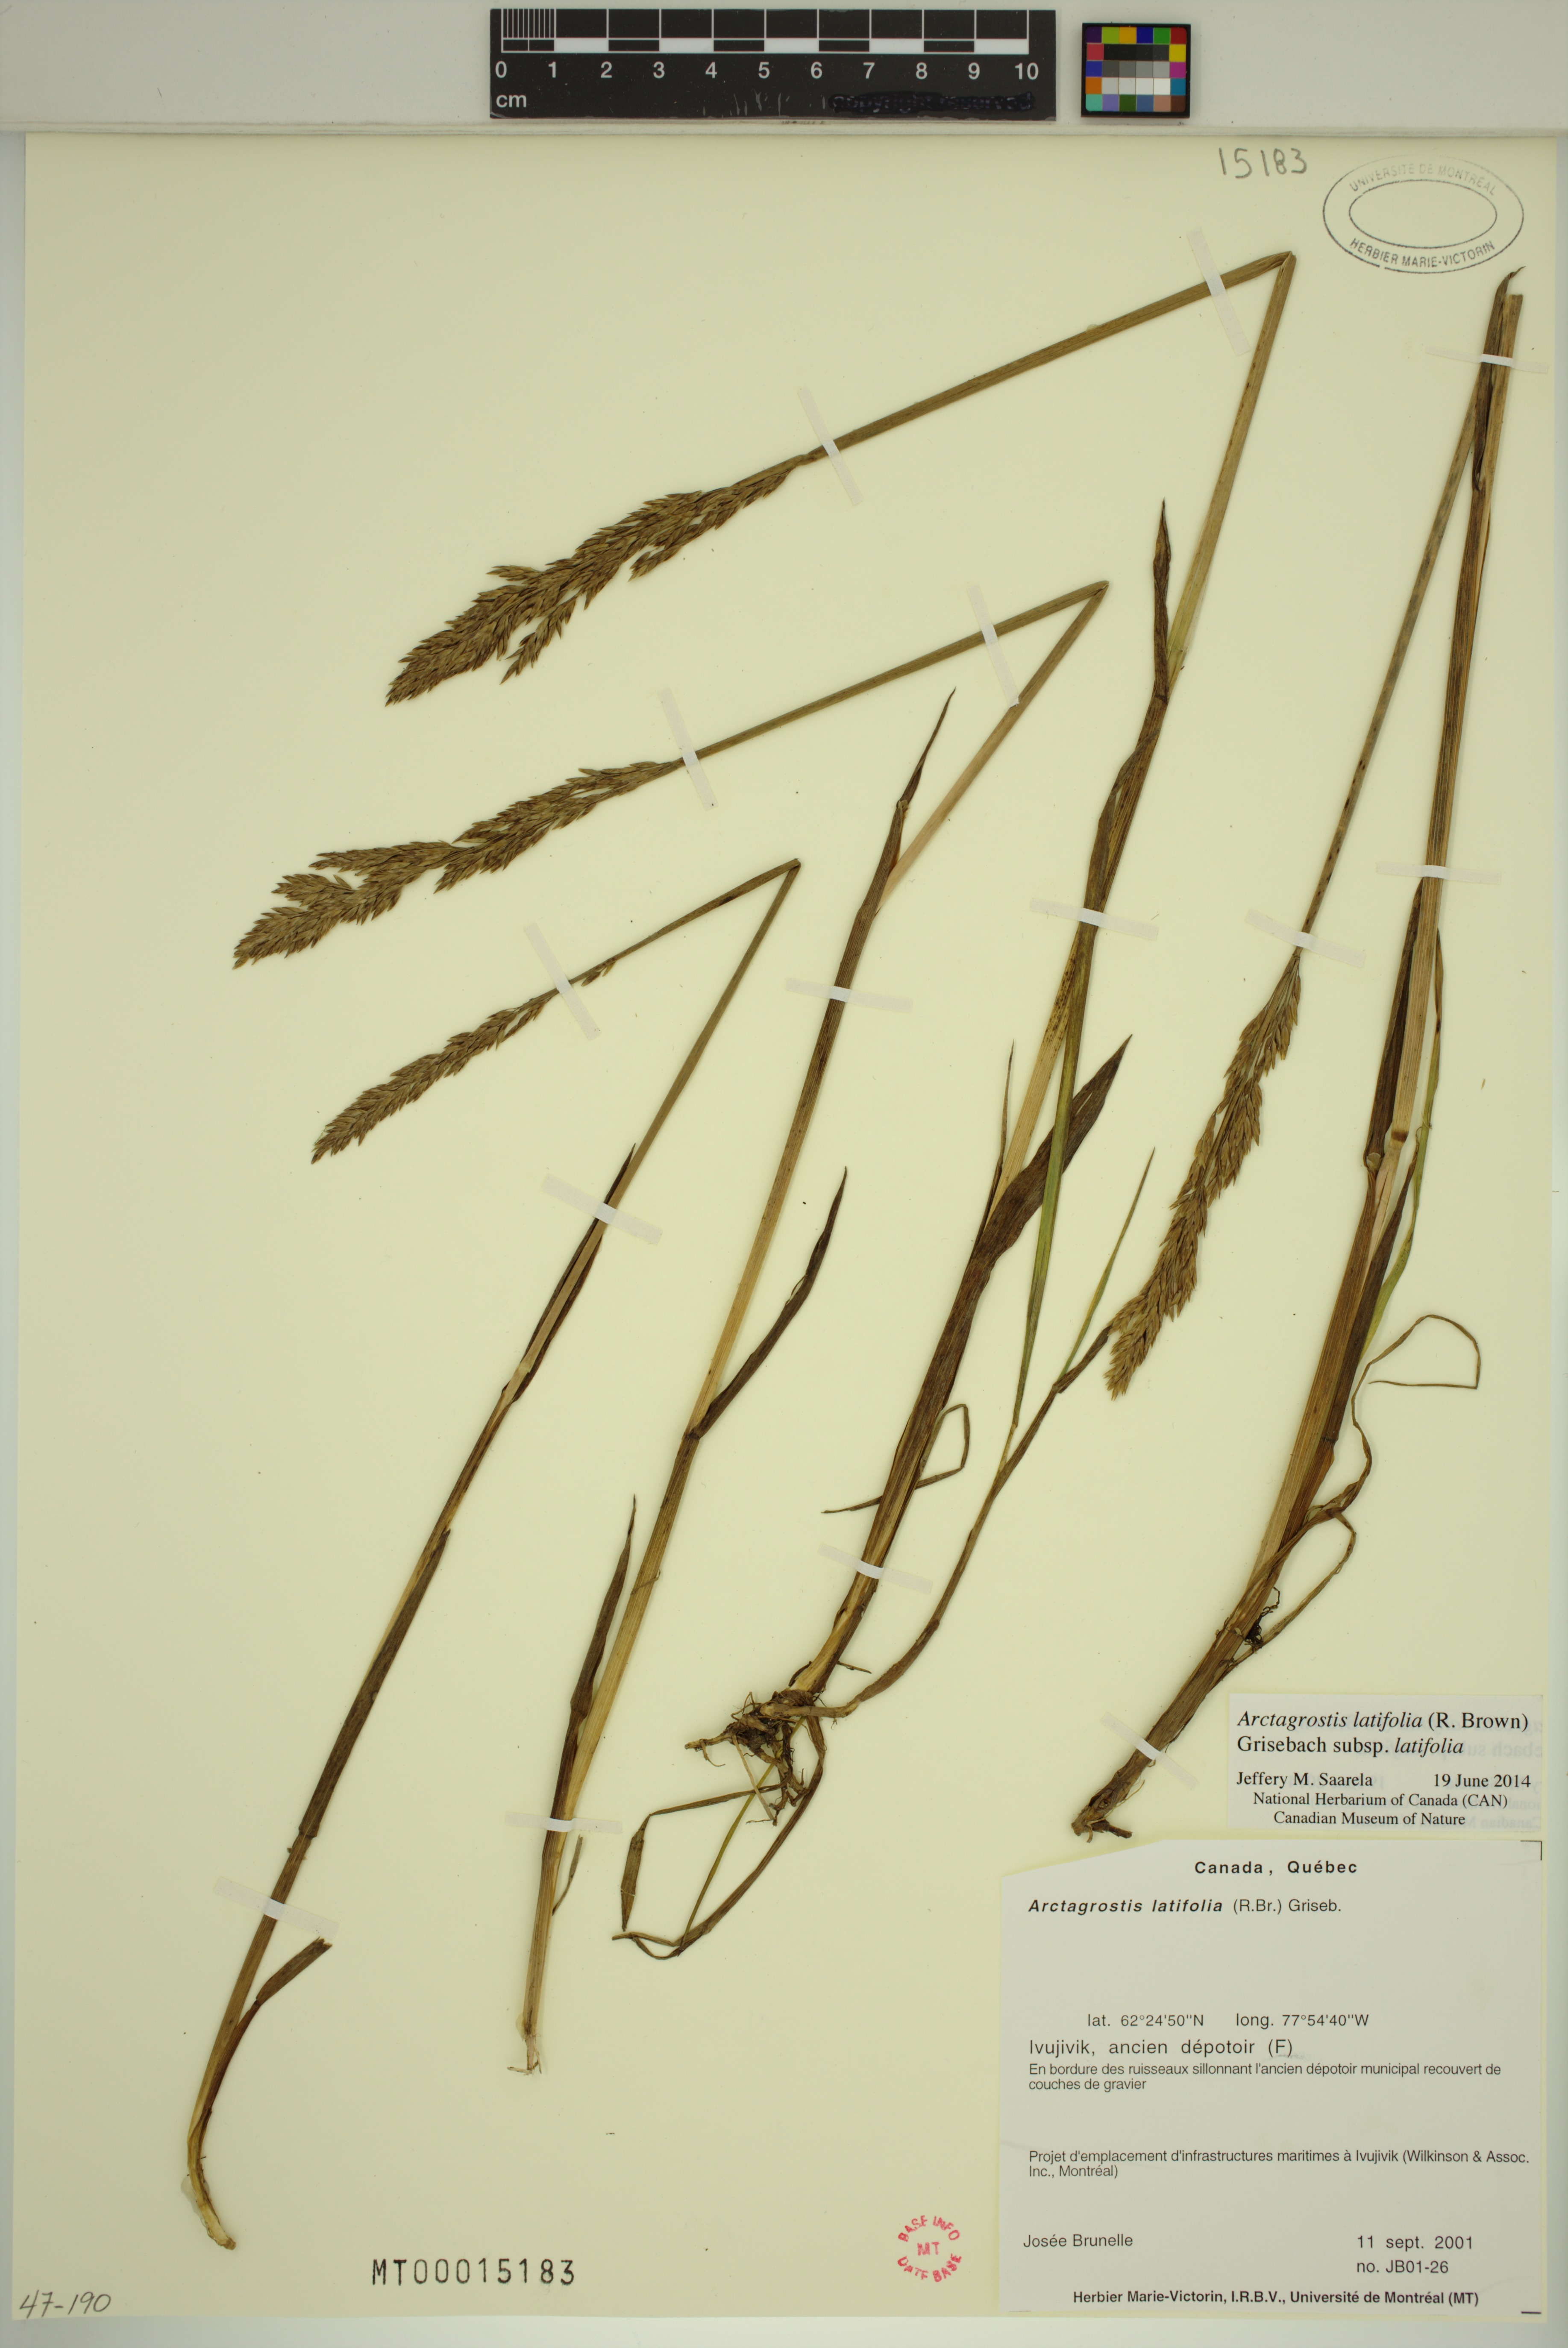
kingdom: Plantae
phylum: Tracheophyta
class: Liliopsida
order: Poales
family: Poaceae
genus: Arctagrostis
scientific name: Arctagrostis latifolia
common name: Arctic grass
